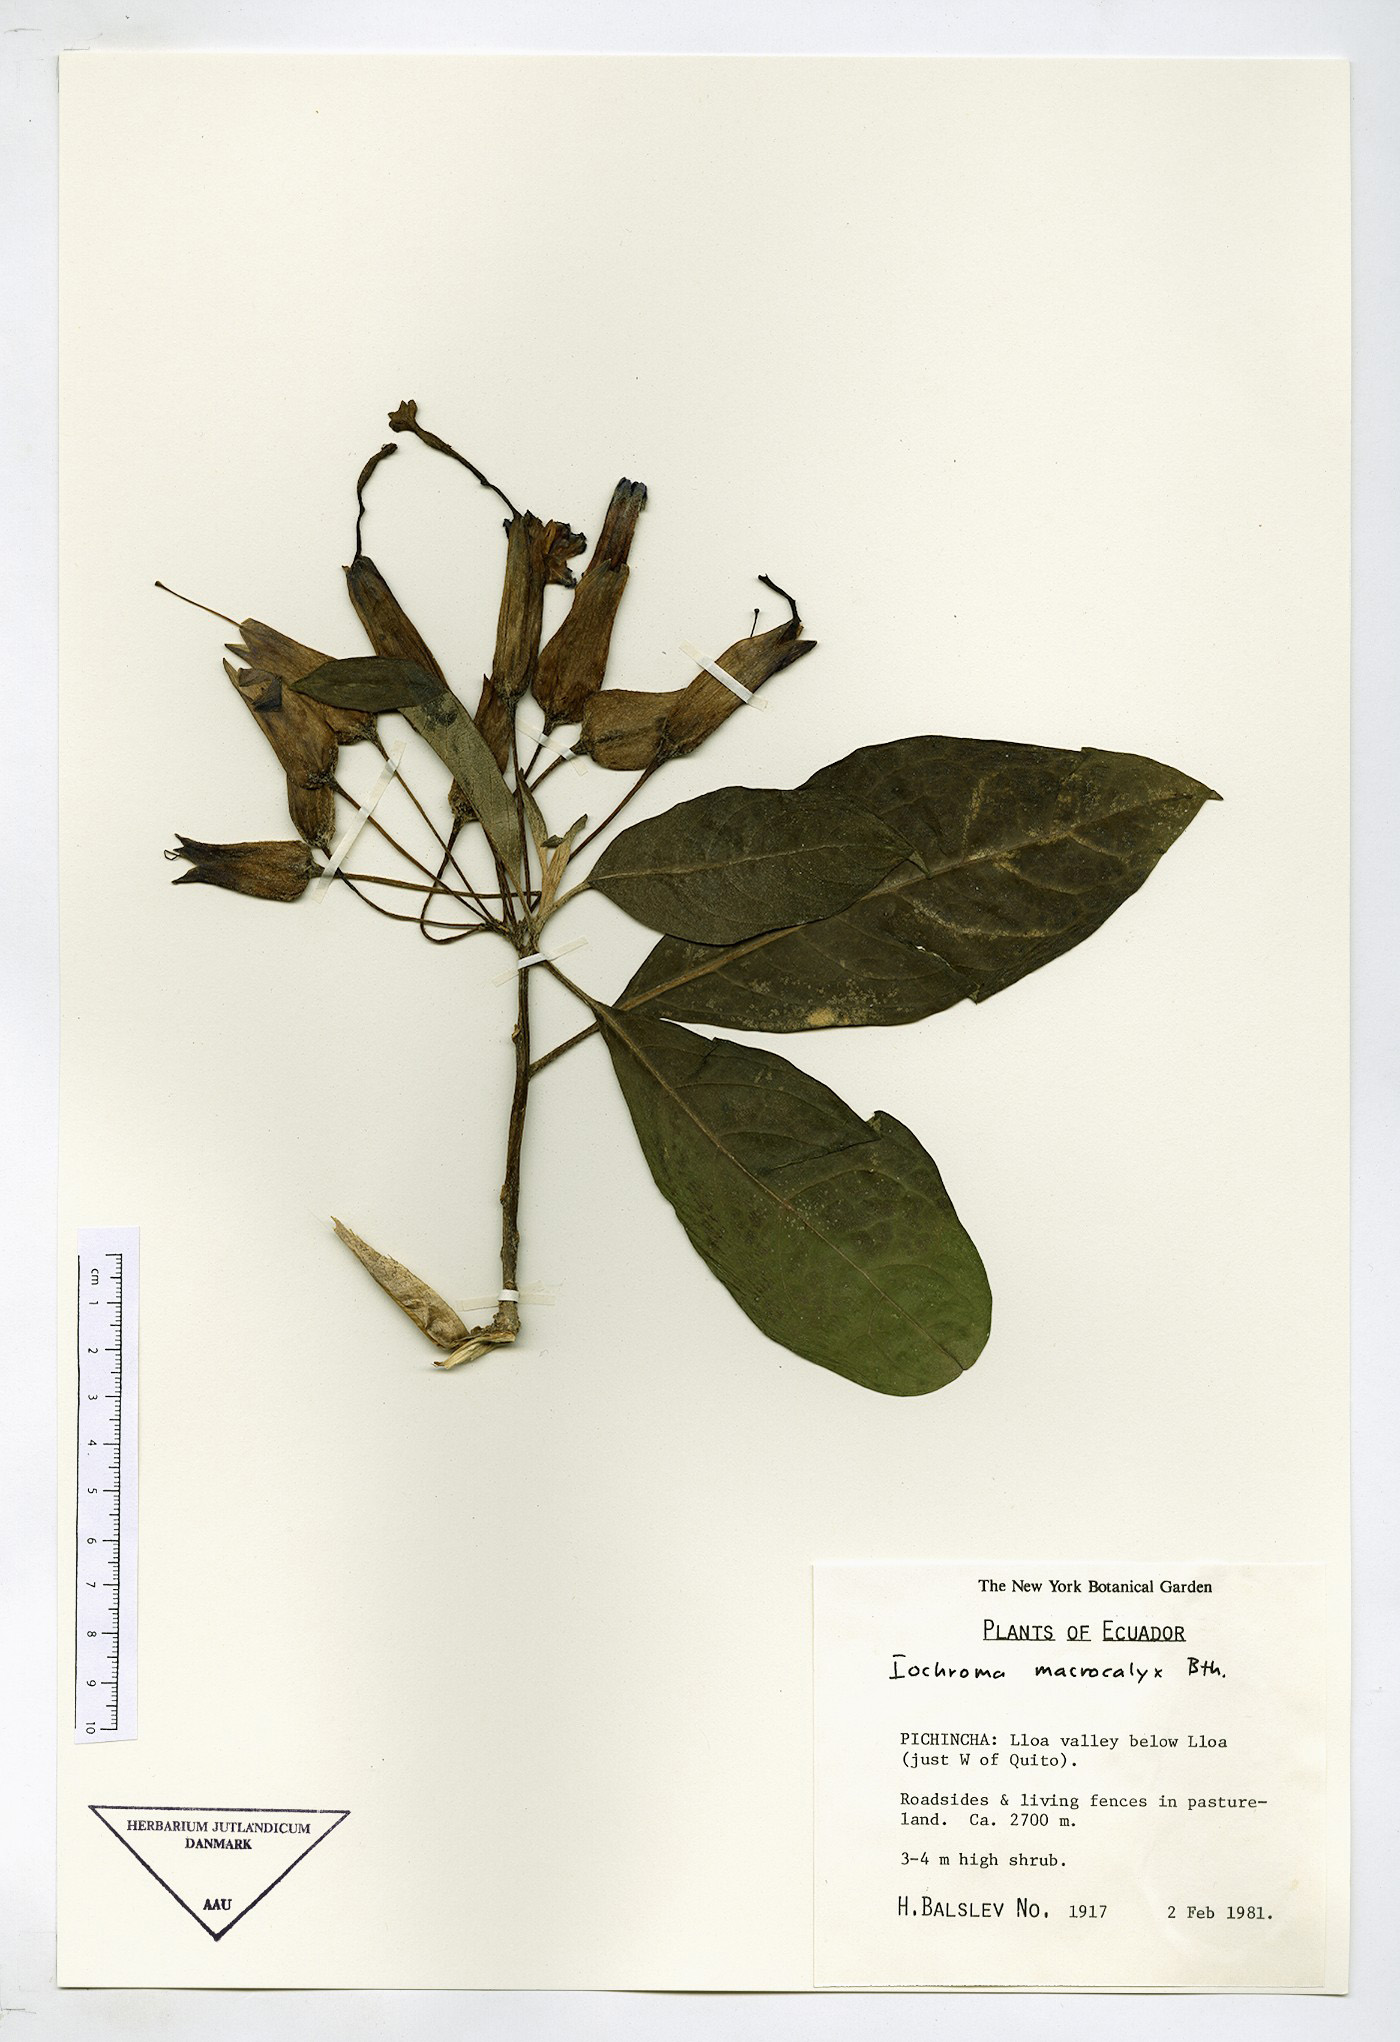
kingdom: Plantae
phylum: Tracheophyta
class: Magnoliopsida
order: Solanales
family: Solanaceae
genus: Iochroma
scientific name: Iochroma calycinum
